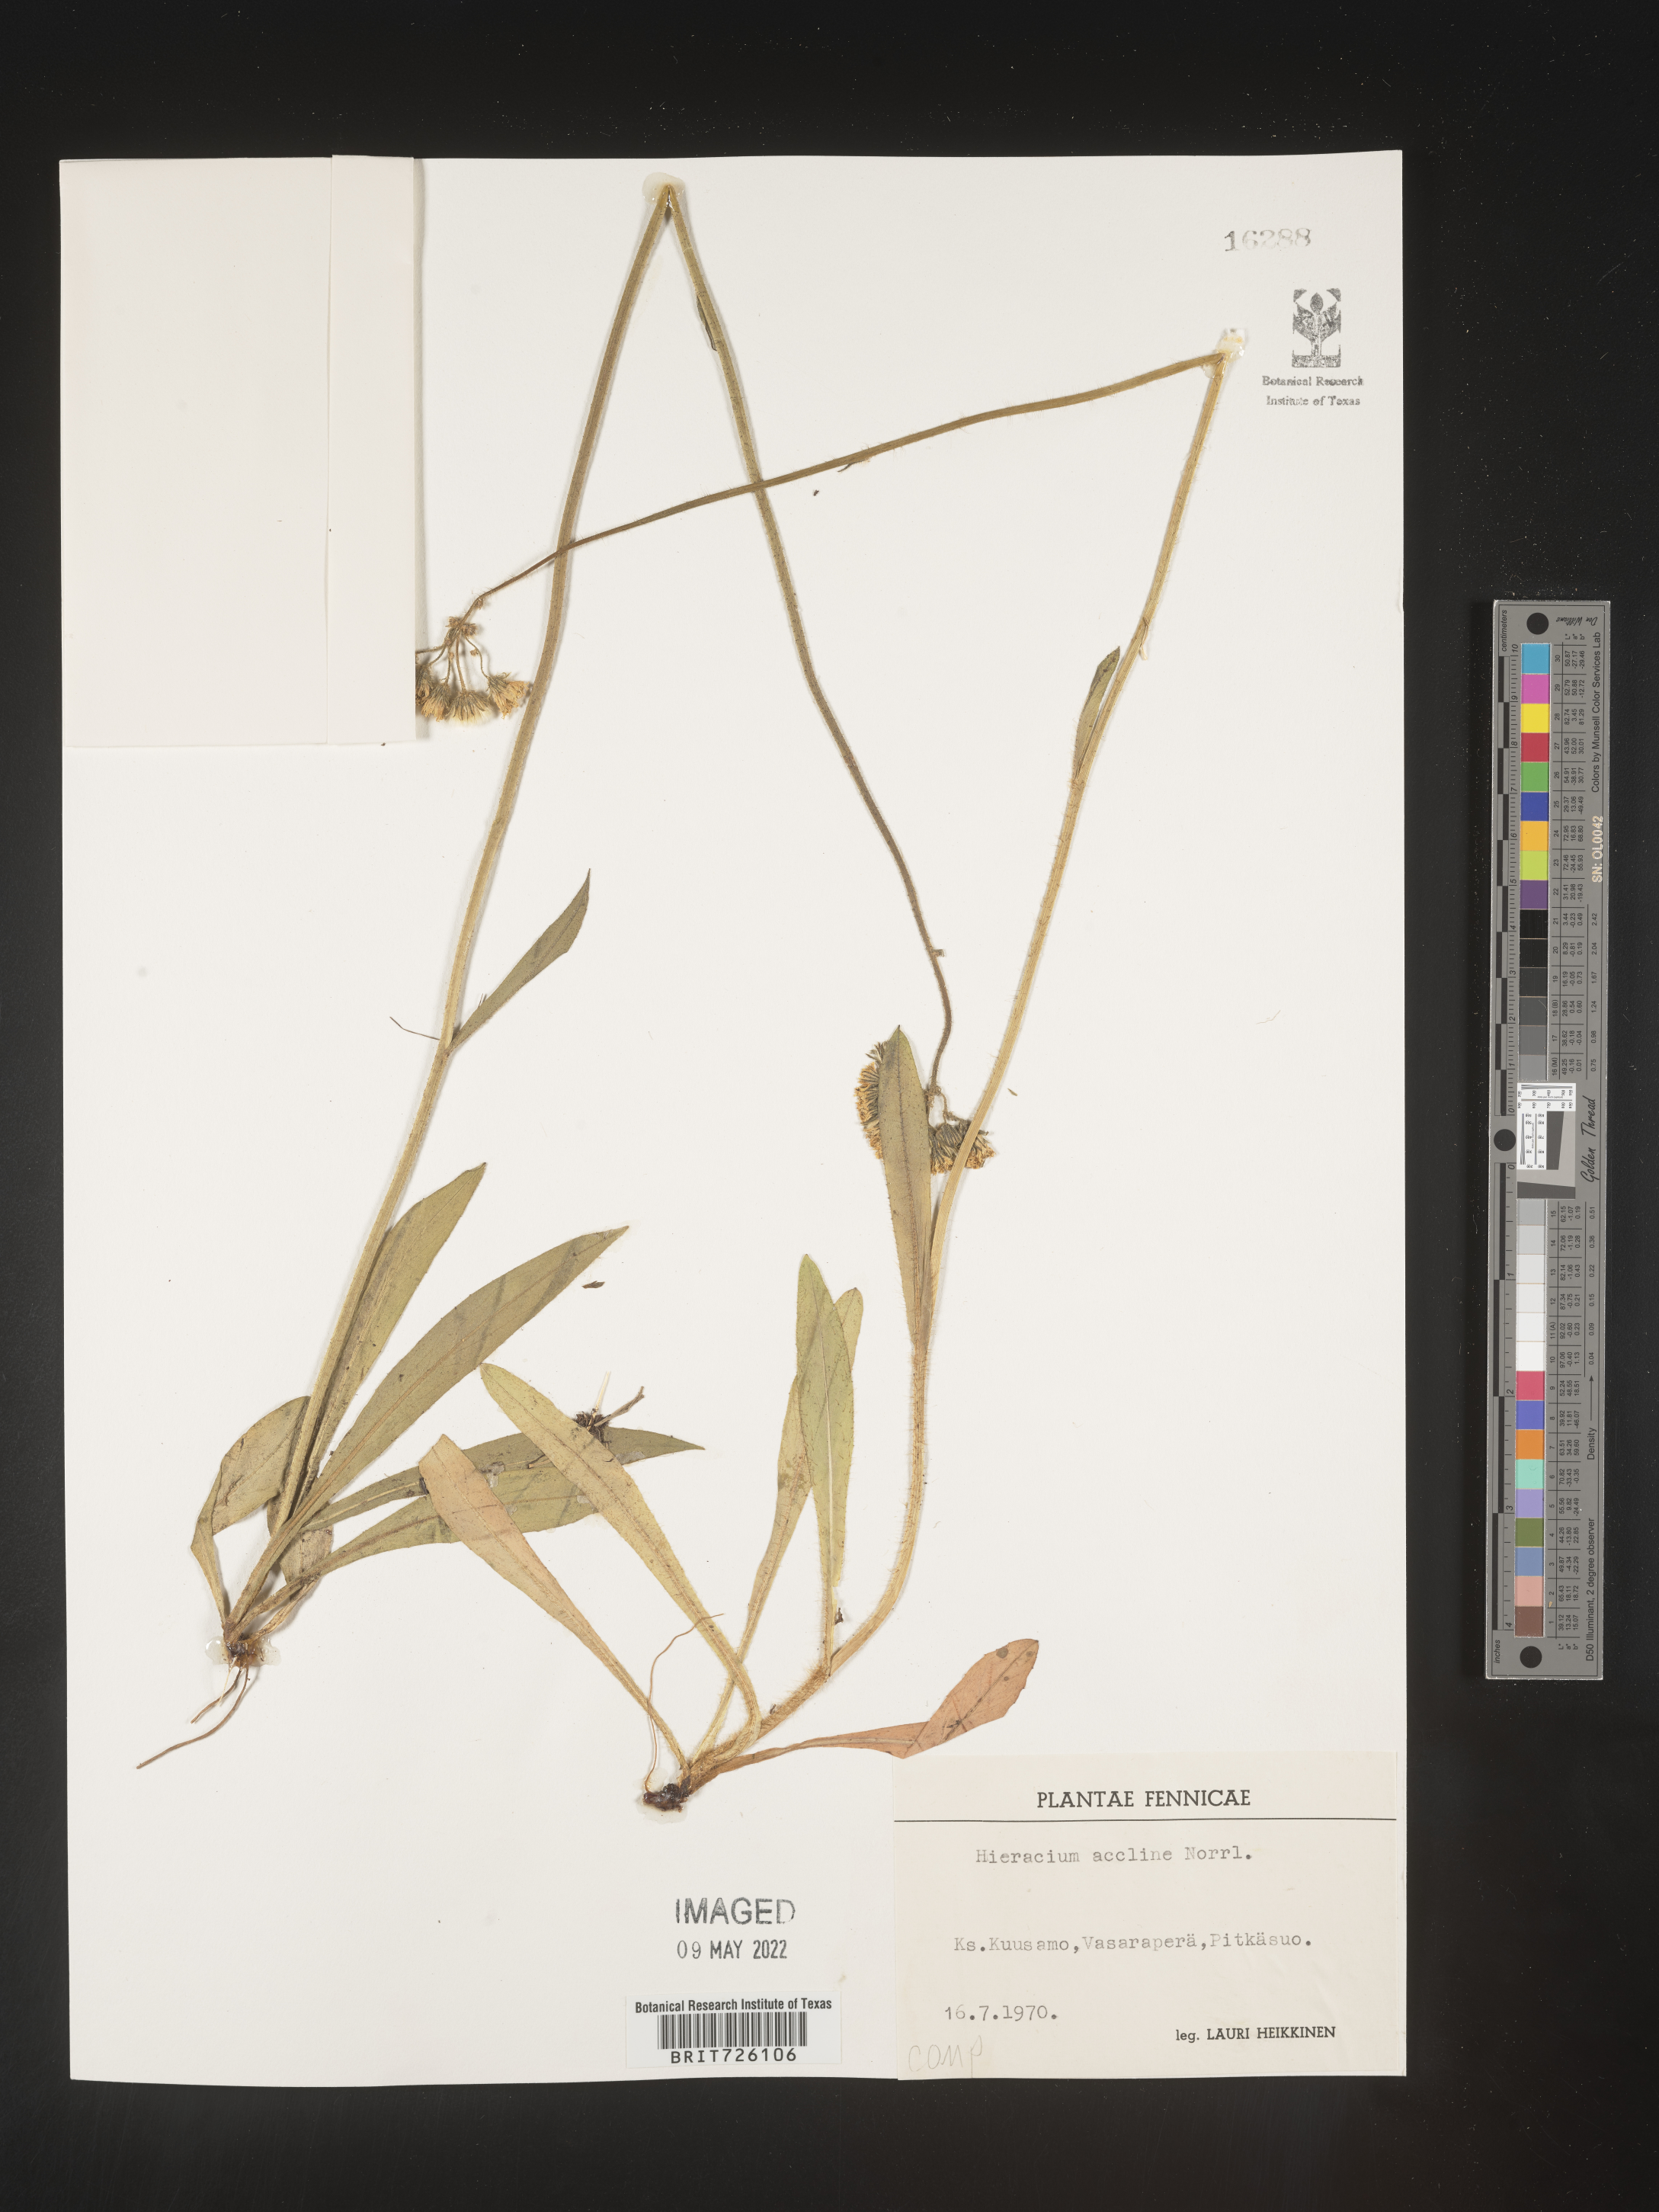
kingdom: Plantae
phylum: Tracheophyta
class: Magnoliopsida
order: Asterales
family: Asteraceae
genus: Hieracium
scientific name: Hieracium
